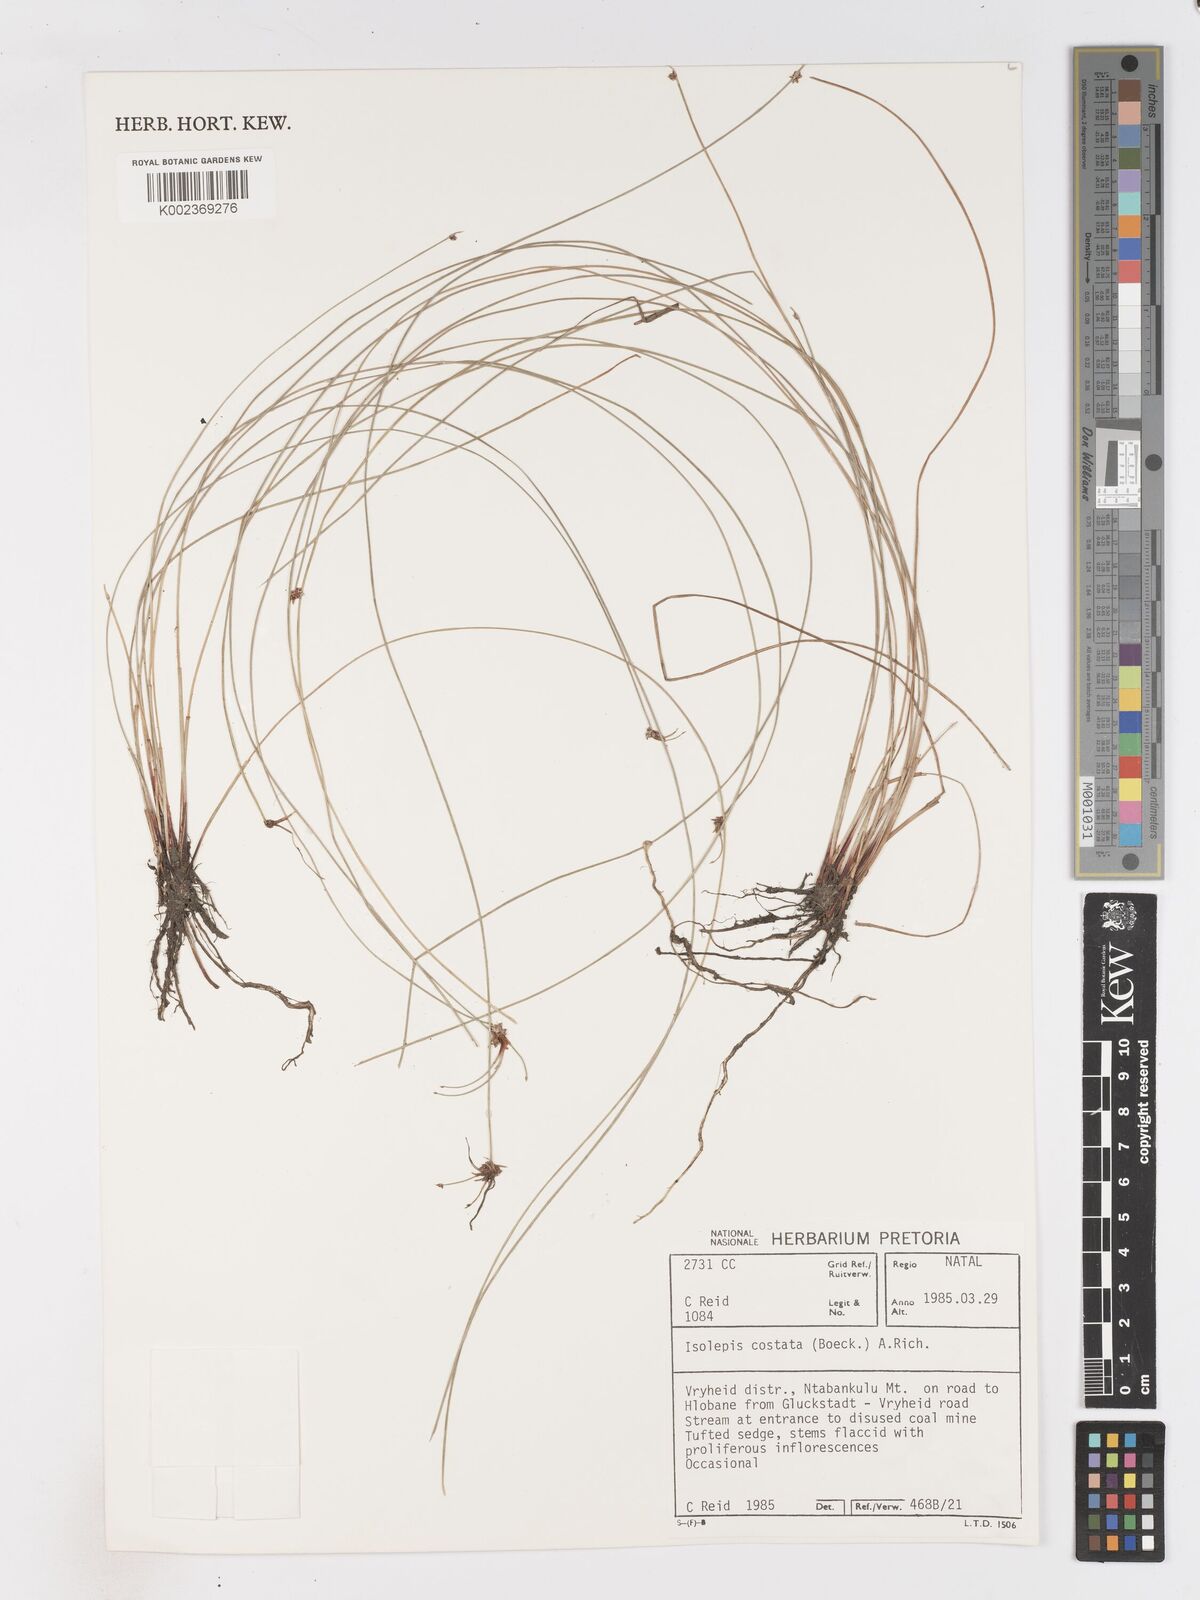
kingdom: Plantae
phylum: Tracheophyta
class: Liliopsida
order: Poales
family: Cyperaceae
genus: Isolepis
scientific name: Isolepis costata
